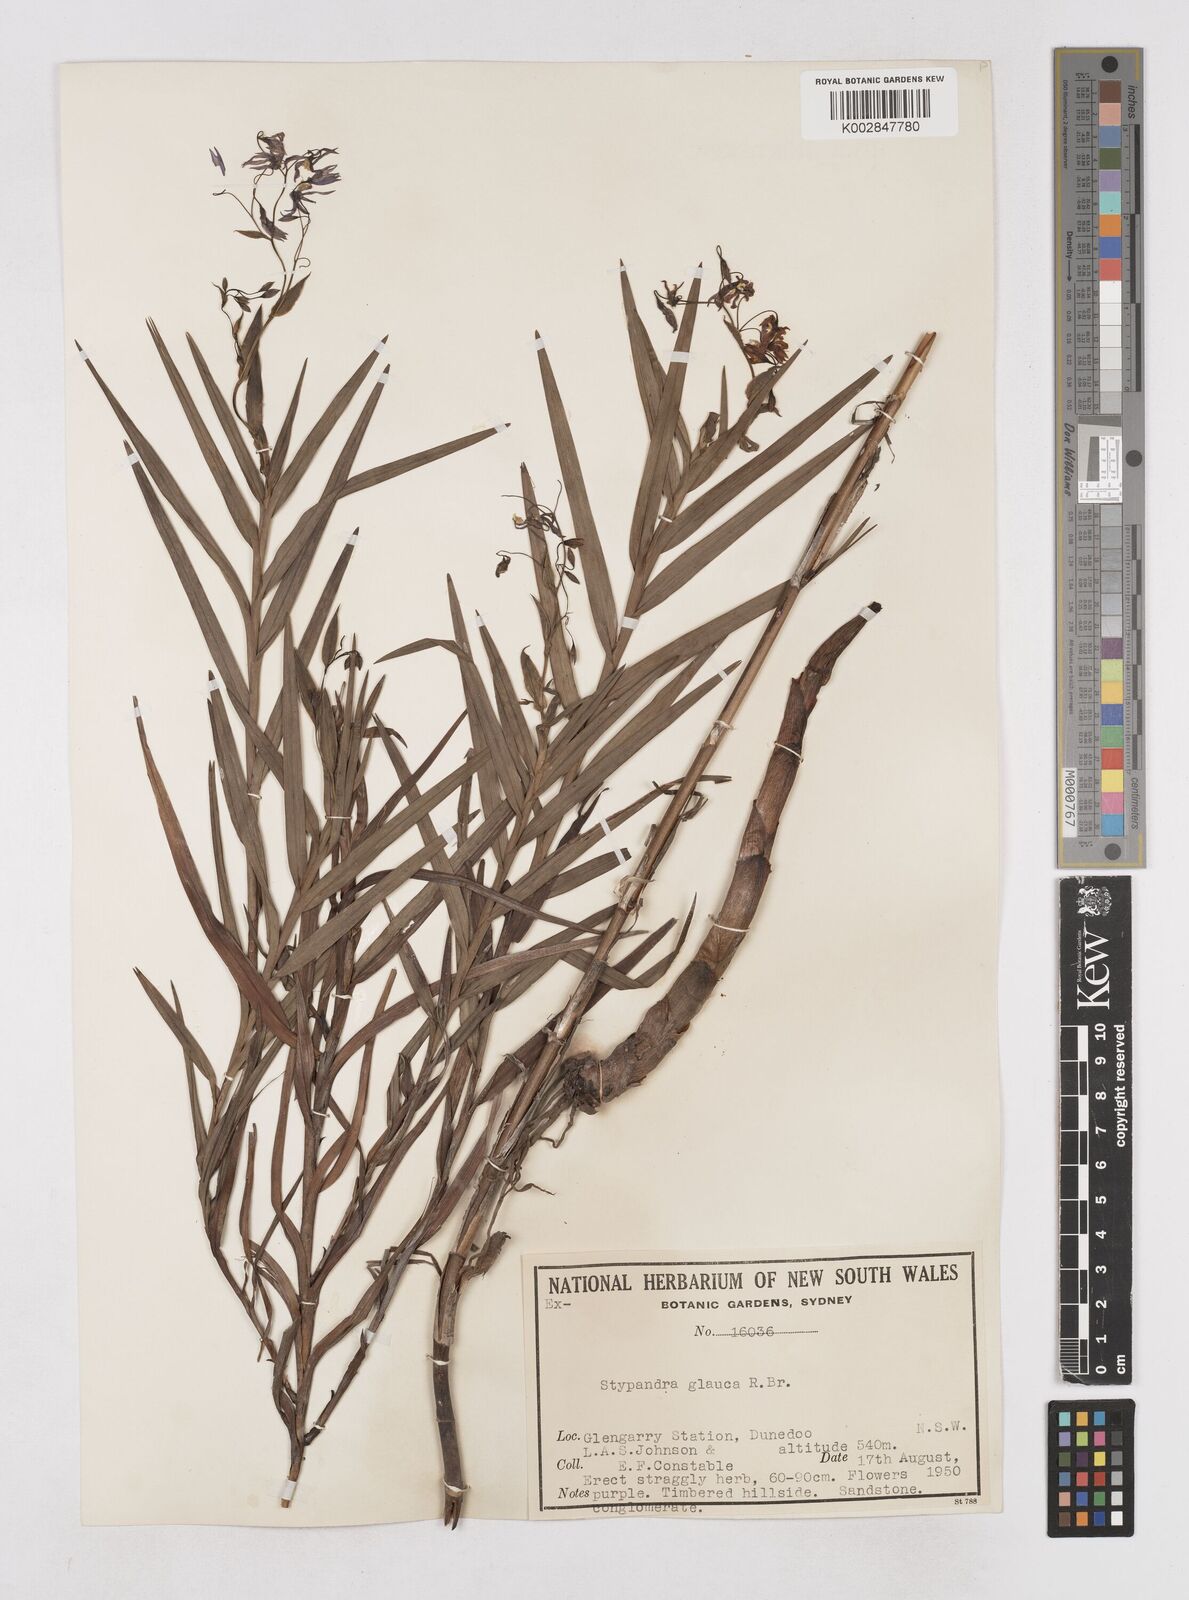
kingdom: Plantae
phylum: Tracheophyta
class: Liliopsida
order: Asparagales
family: Asphodelaceae
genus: Stypandra
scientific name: Stypandra glauca
